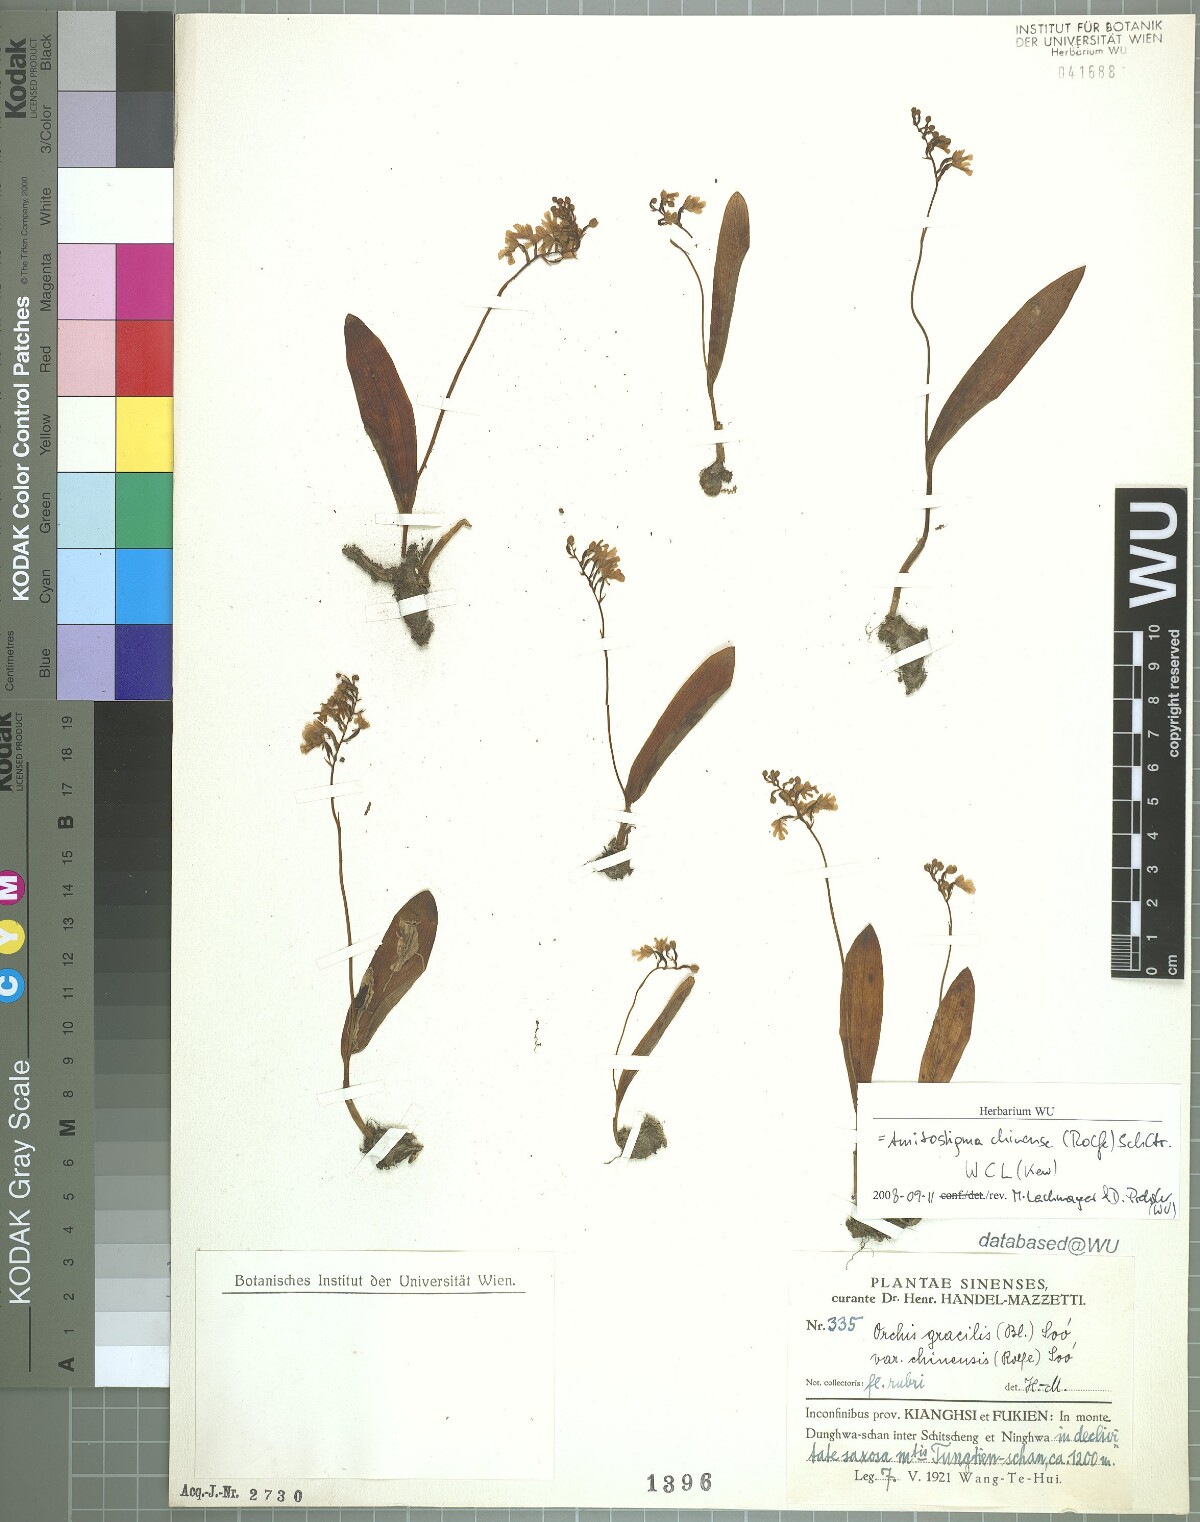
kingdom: Plantae
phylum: Tracheophyta
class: Liliopsida
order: Asparagales
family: Orchidaceae
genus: Hemipilia
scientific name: Hemipilia gracilis
